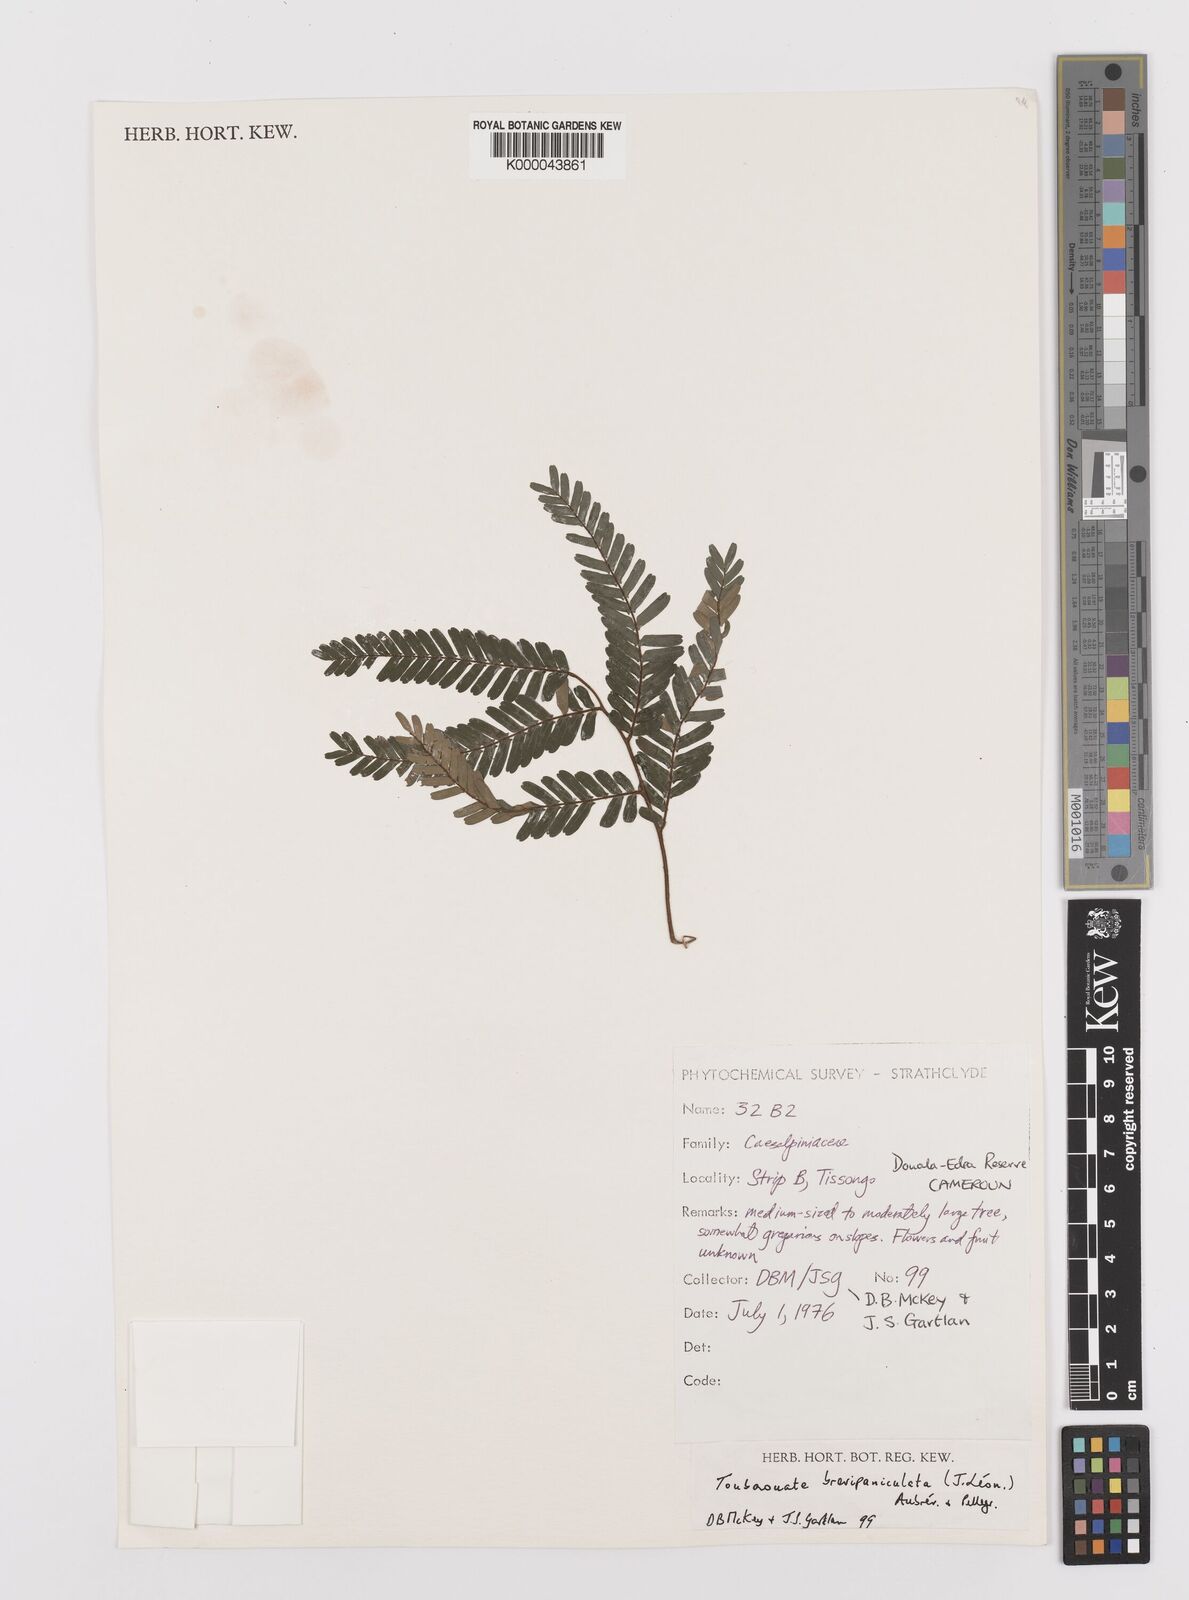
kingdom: Plantae
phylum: Tracheophyta
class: Magnoliopsida
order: Fabales
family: Fabaceae
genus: Didelotia
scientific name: Didelotia
